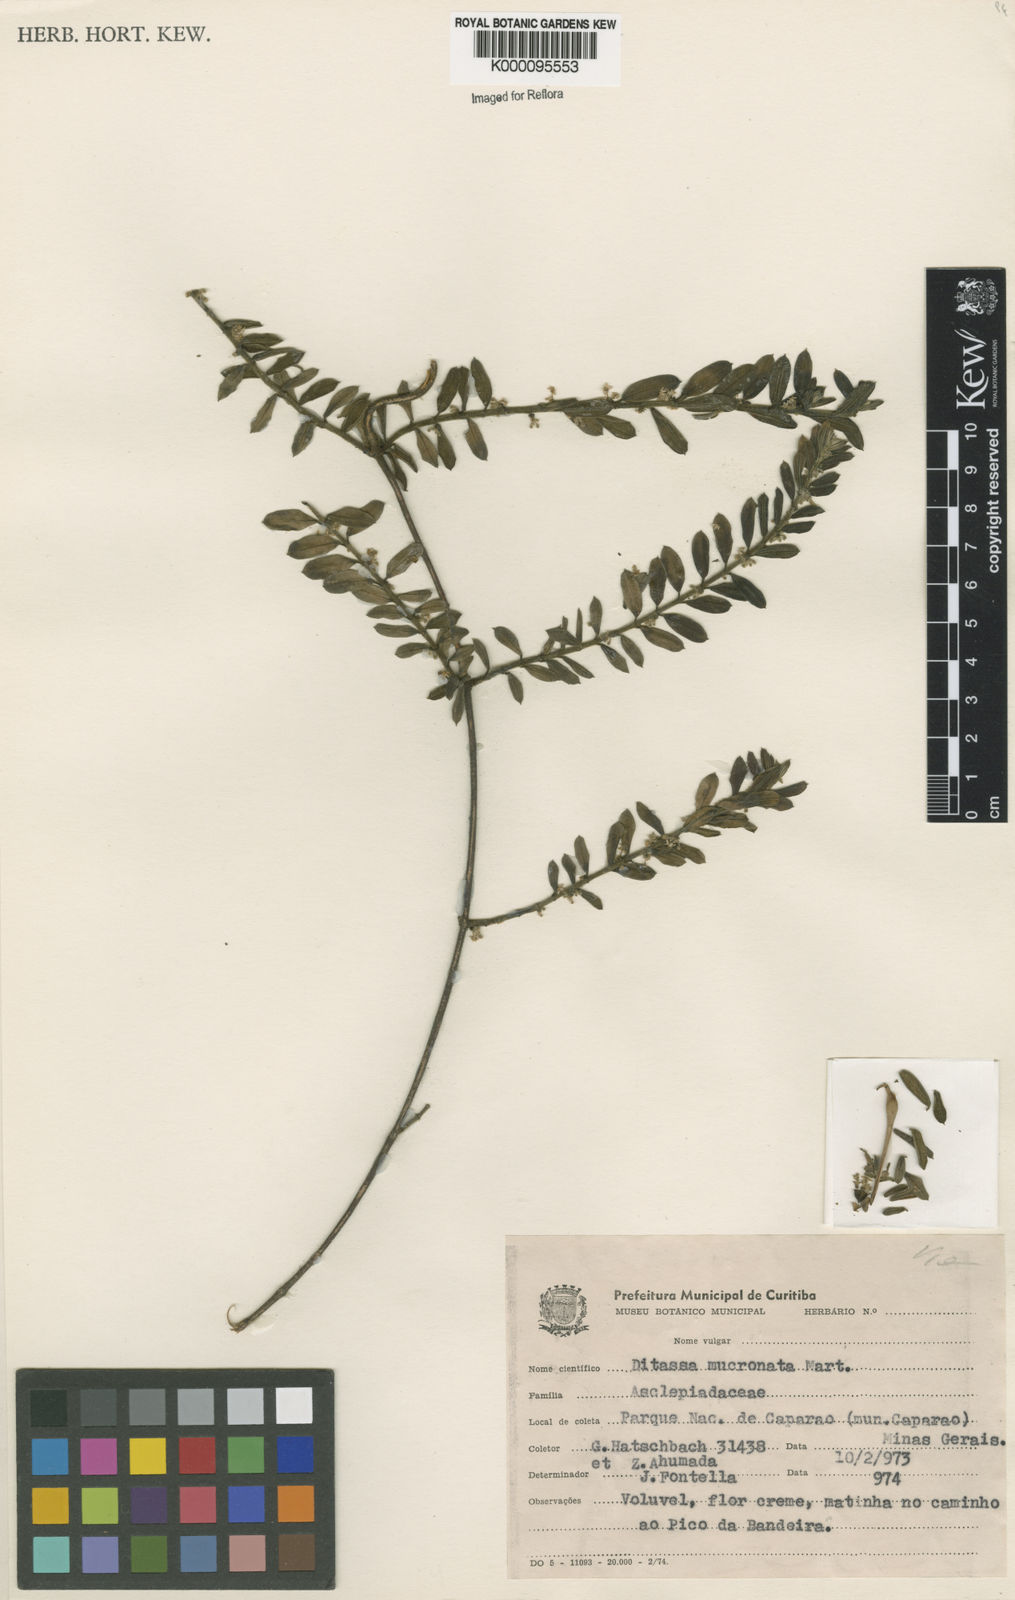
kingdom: Plantae
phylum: Tracheophyta
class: Magnoliopsida
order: Gentianales
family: Apocynaceae
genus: Ditassa
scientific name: Ditassa mucronata
